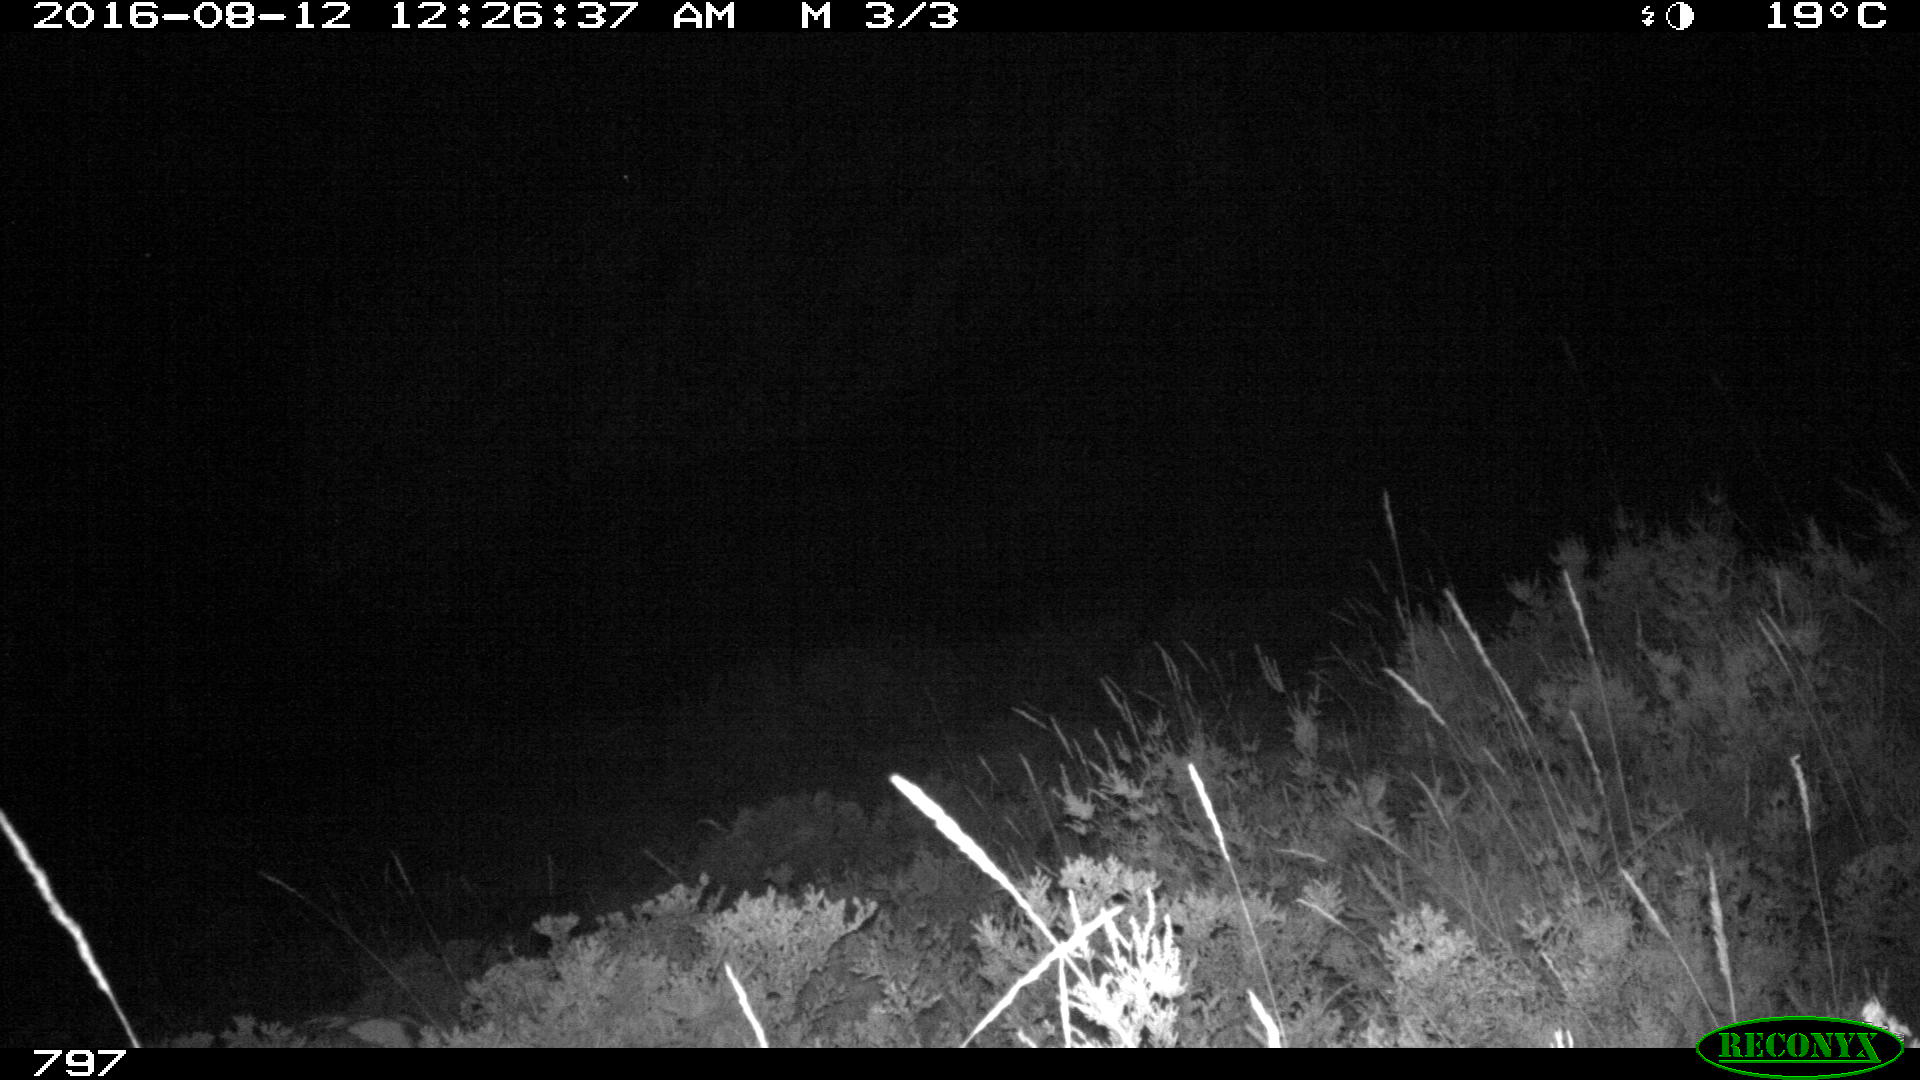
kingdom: Animalia
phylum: Chordata
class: Mammalia
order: Perissodactyla
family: Equidae
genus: Equus
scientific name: Equus caballus
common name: Horse
